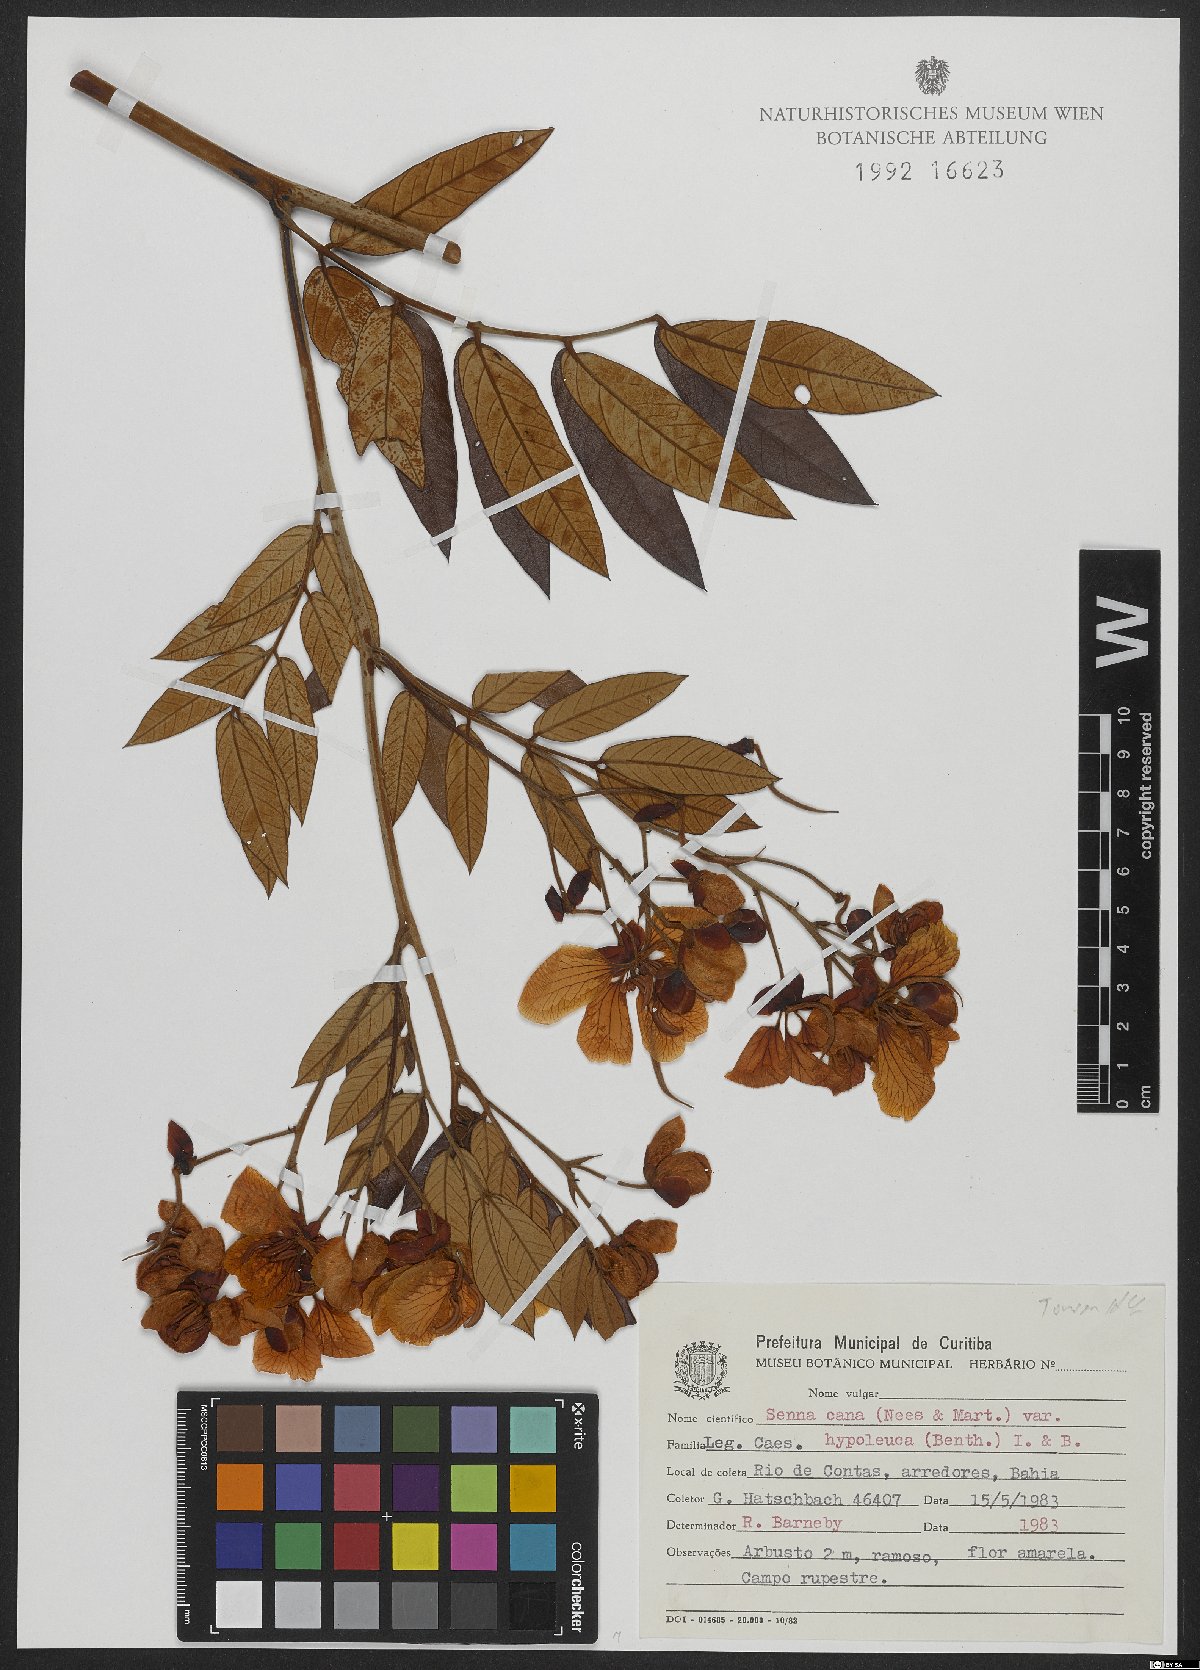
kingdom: Plantae
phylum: Tracheophyta
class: Magnoliopsida
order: Fabales
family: Fabaceae
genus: Senna
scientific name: Senna cana
